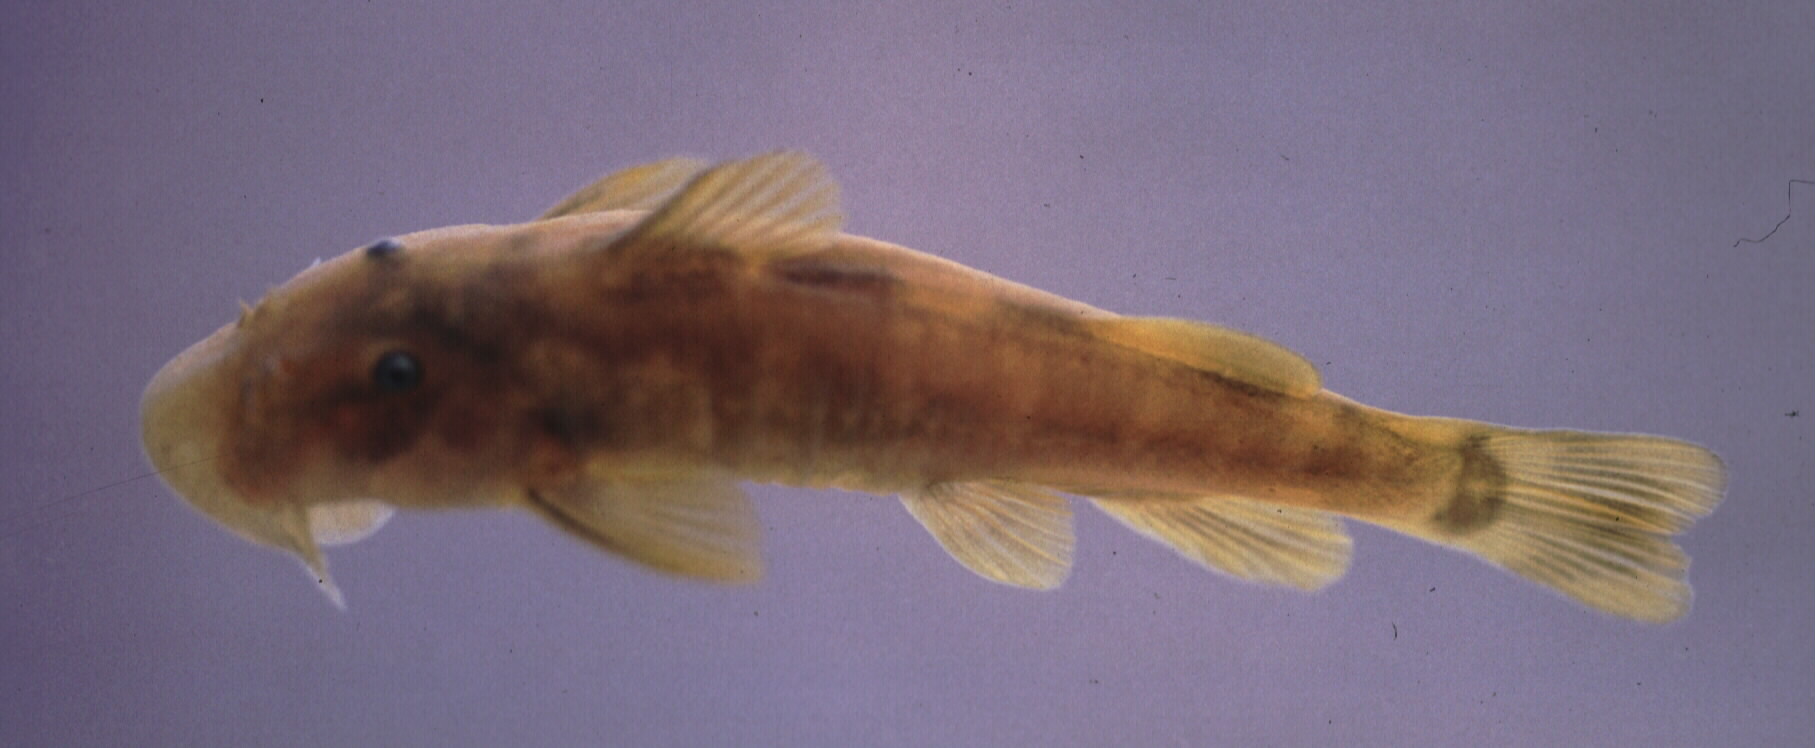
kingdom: Animalia
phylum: Chordata
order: Siluriformes
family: Mochokidae
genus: Chiloglanis
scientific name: Chiloglanis pretoriae
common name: Shortspine catlet
